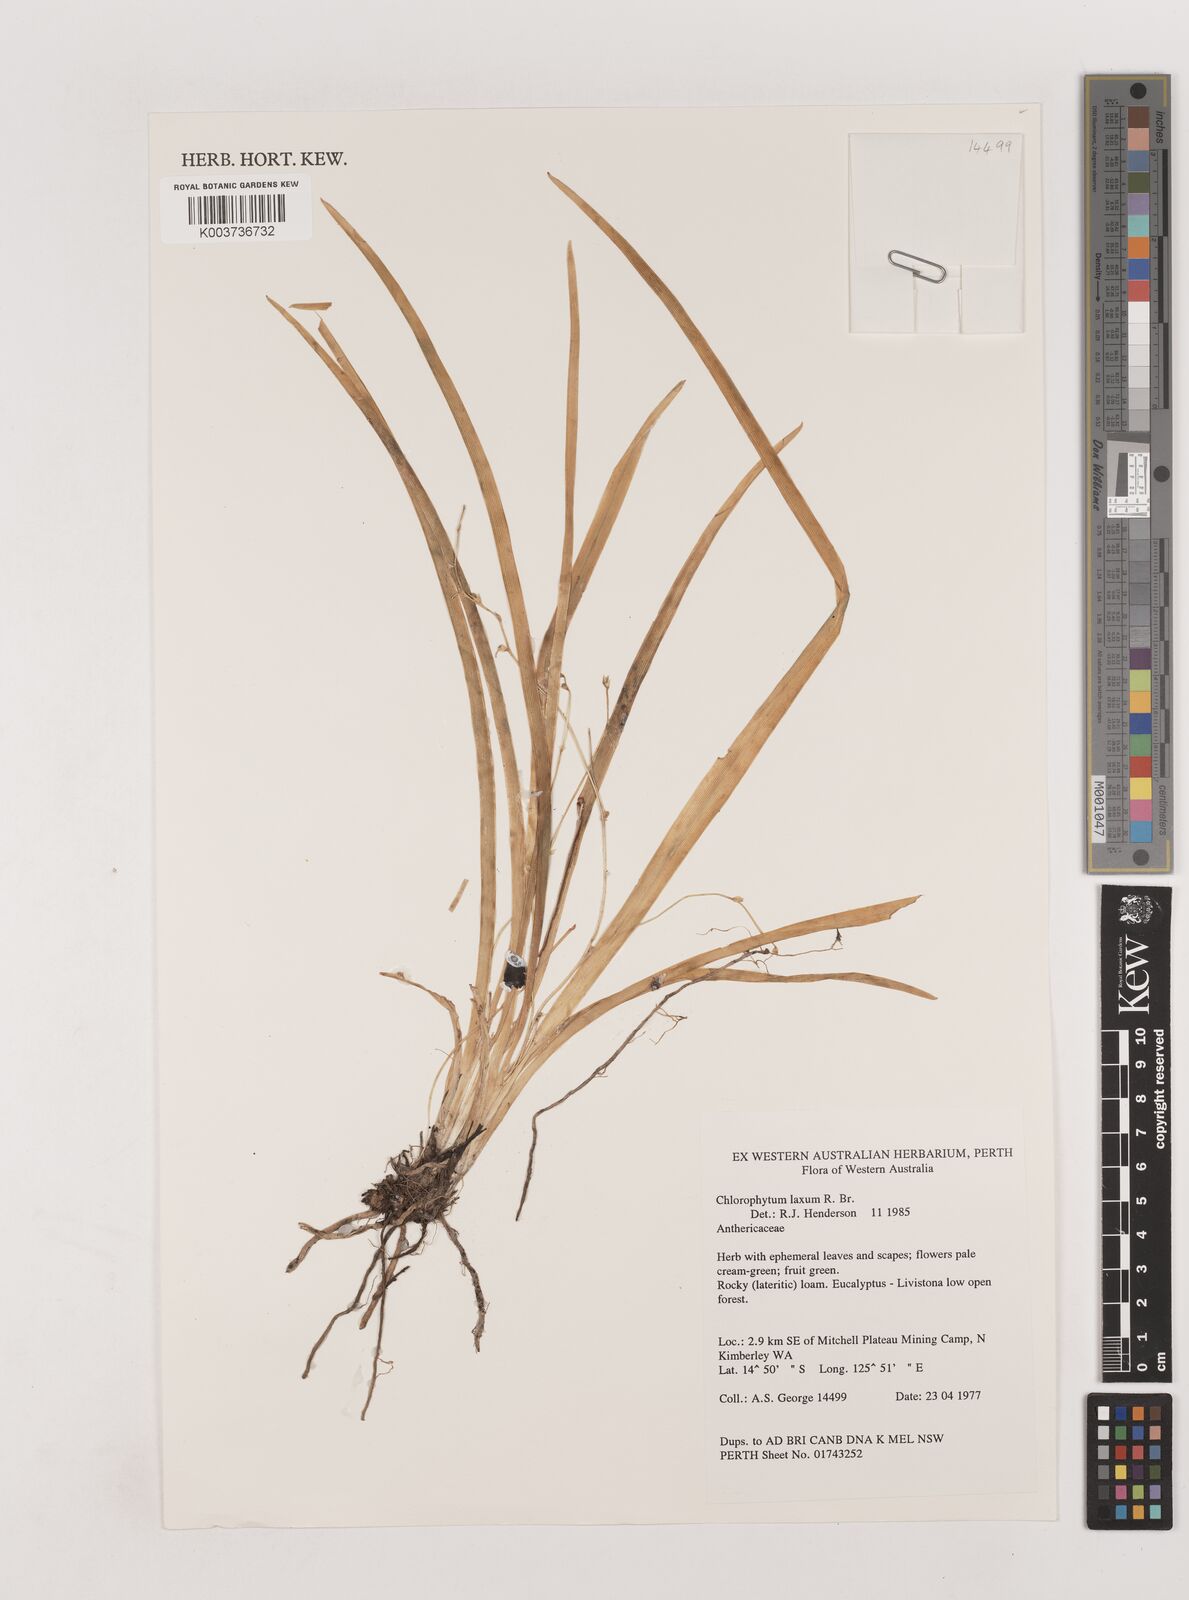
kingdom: Plantae
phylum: Tracheophyta
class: Liliopsida
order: Asparagales
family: Asparagaceae
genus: Chlorophytum
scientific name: Chlorophytum laxum
